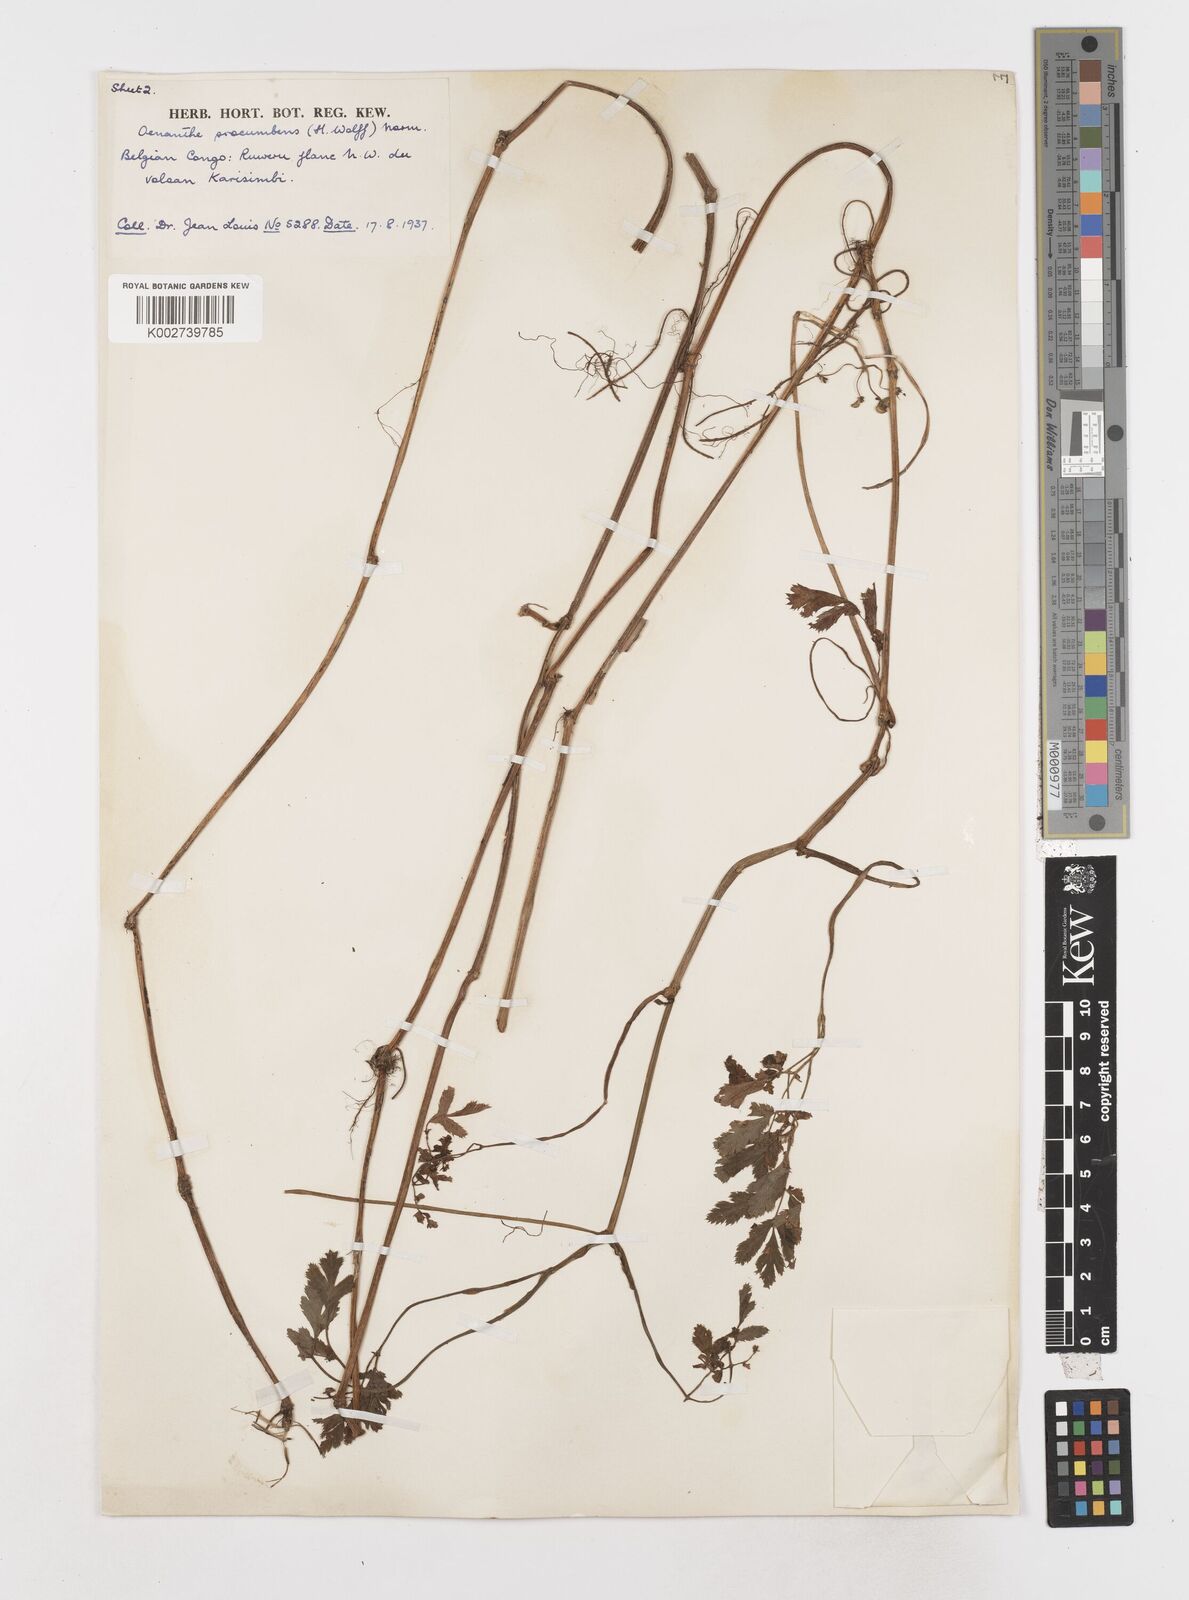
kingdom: Plantae
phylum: Tracheophyta
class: Magnoliopsida
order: Apiales
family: Apiaceae
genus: Oenanthe
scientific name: Oenanthe procumbens
